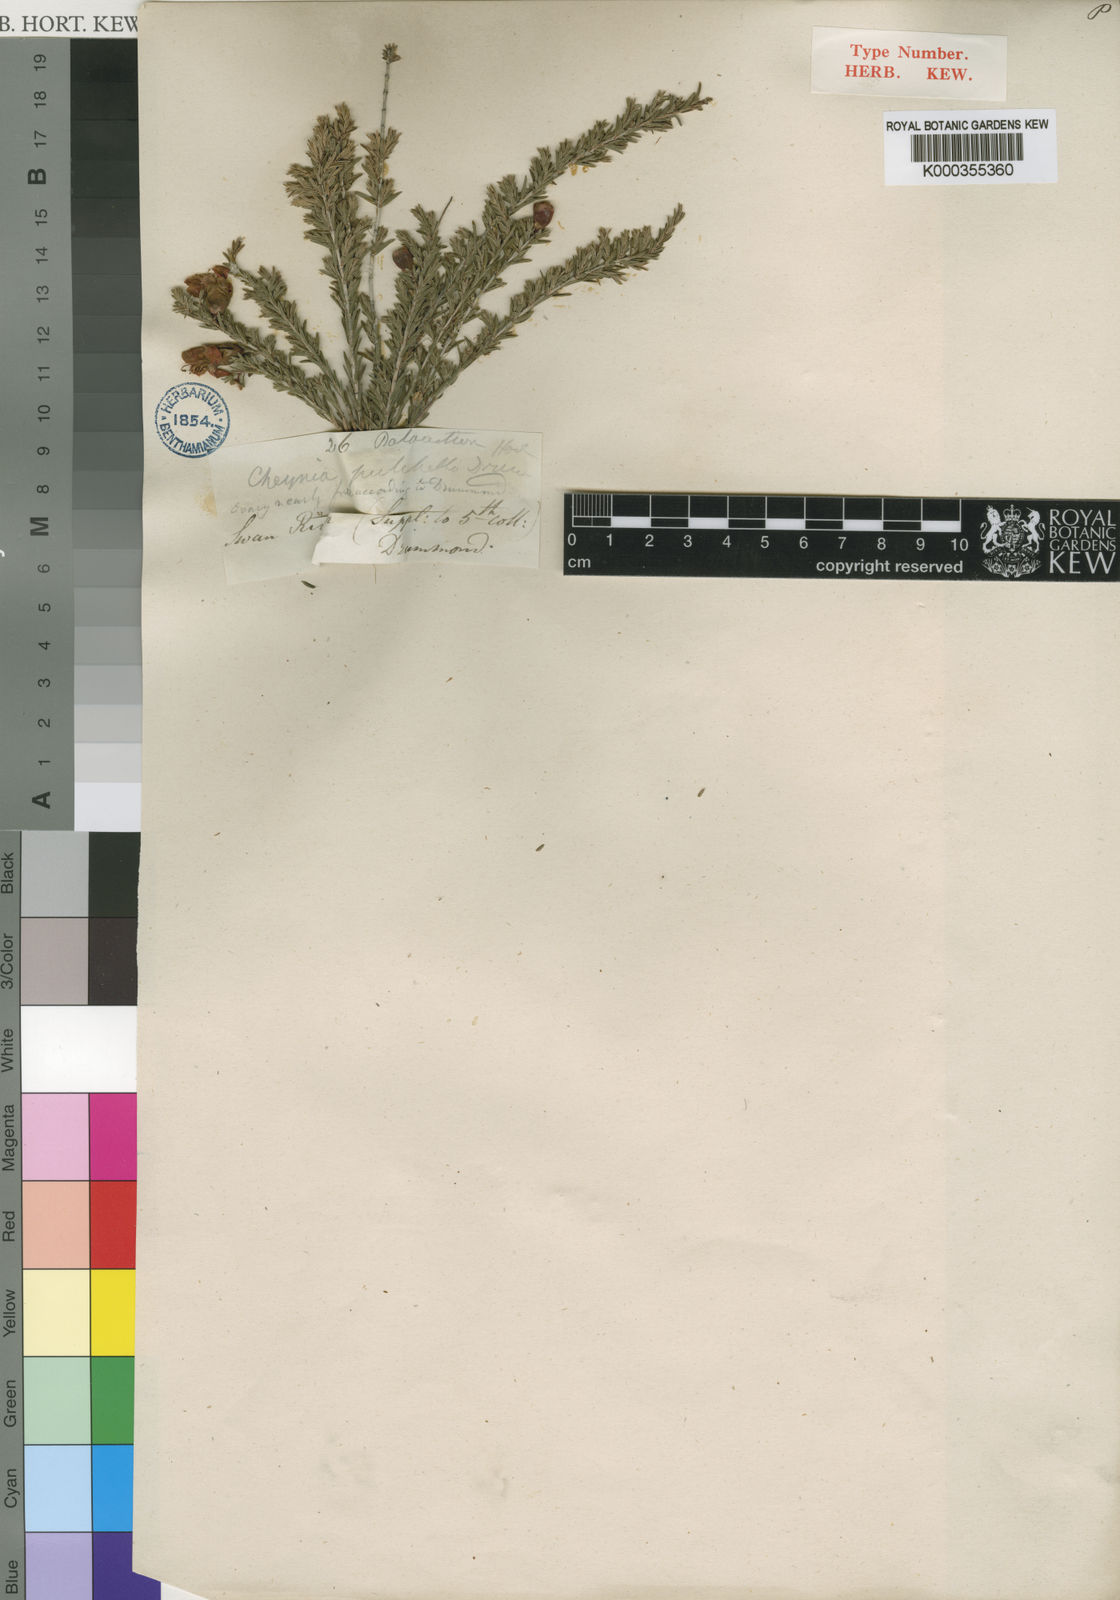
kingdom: Plantae
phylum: Tracheophyta
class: Magnoliopsida
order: Myrtales
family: Myrtaceae
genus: Balaustion
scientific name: Balaustion pulcherrimum
